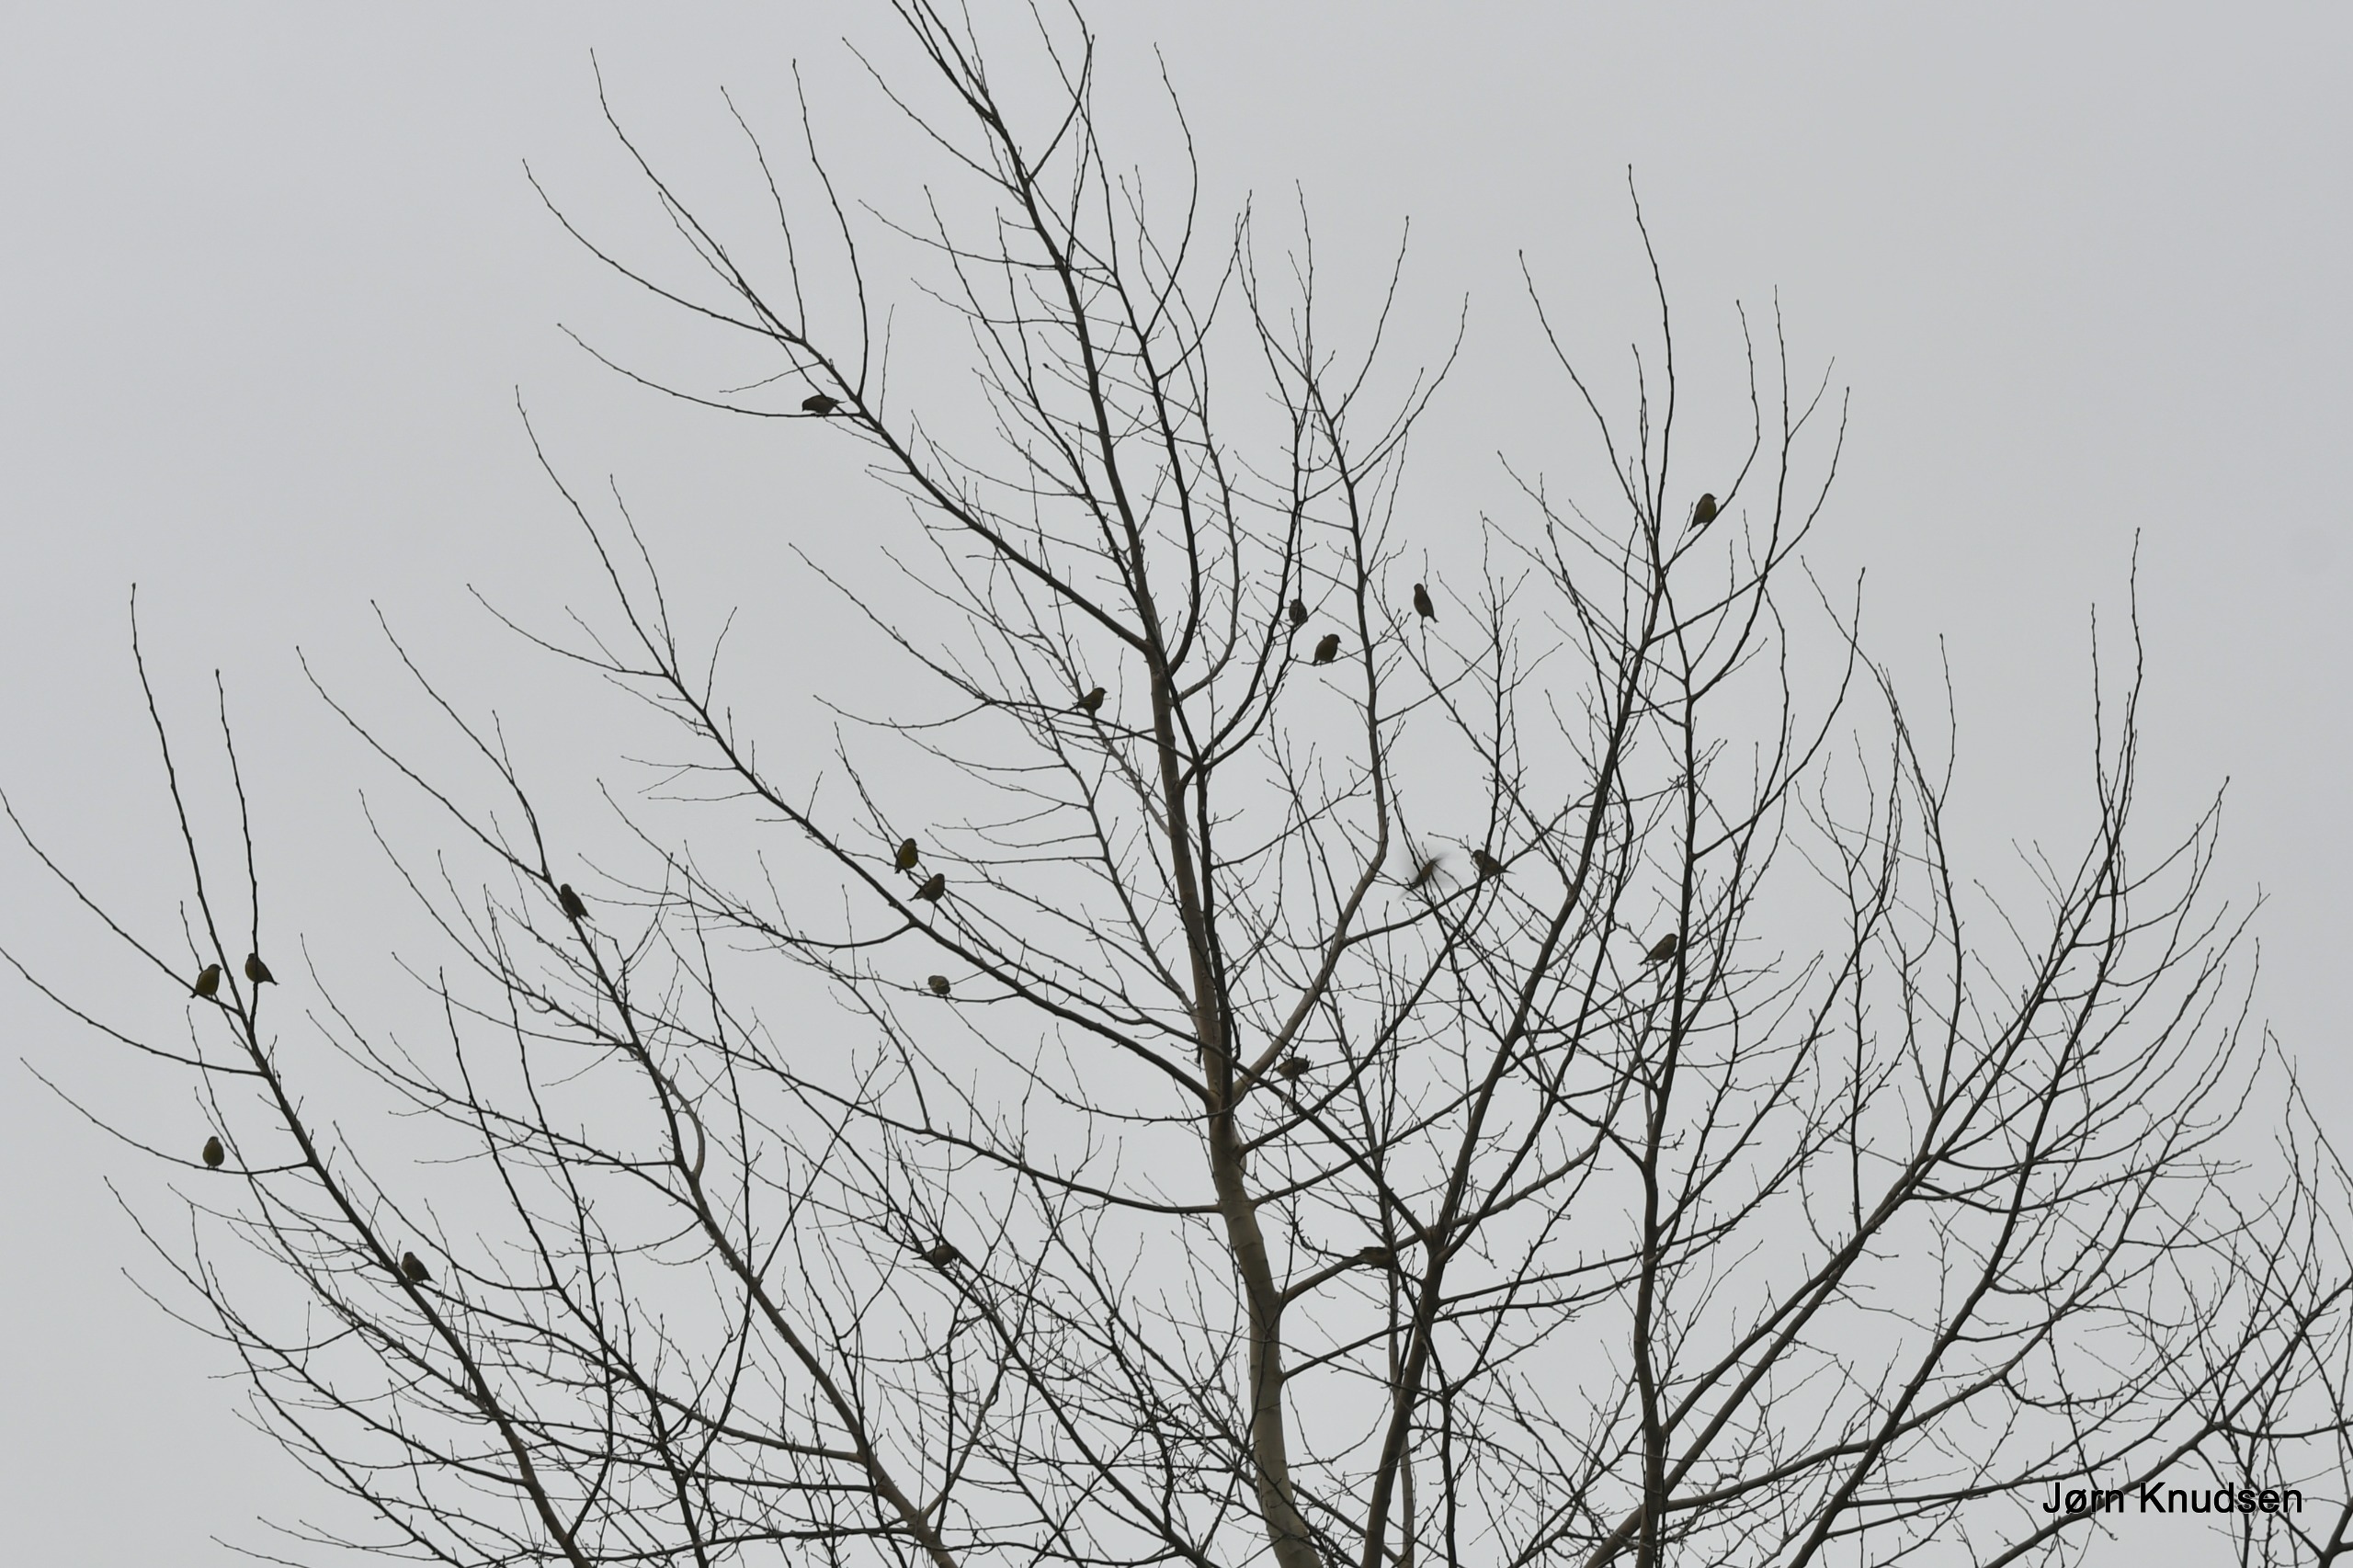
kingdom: Plantae
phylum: Tracheophyta
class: Liliopsida
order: Poales
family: Poaceae
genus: Chloris
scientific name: Chloris chloris
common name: Grønirisk
